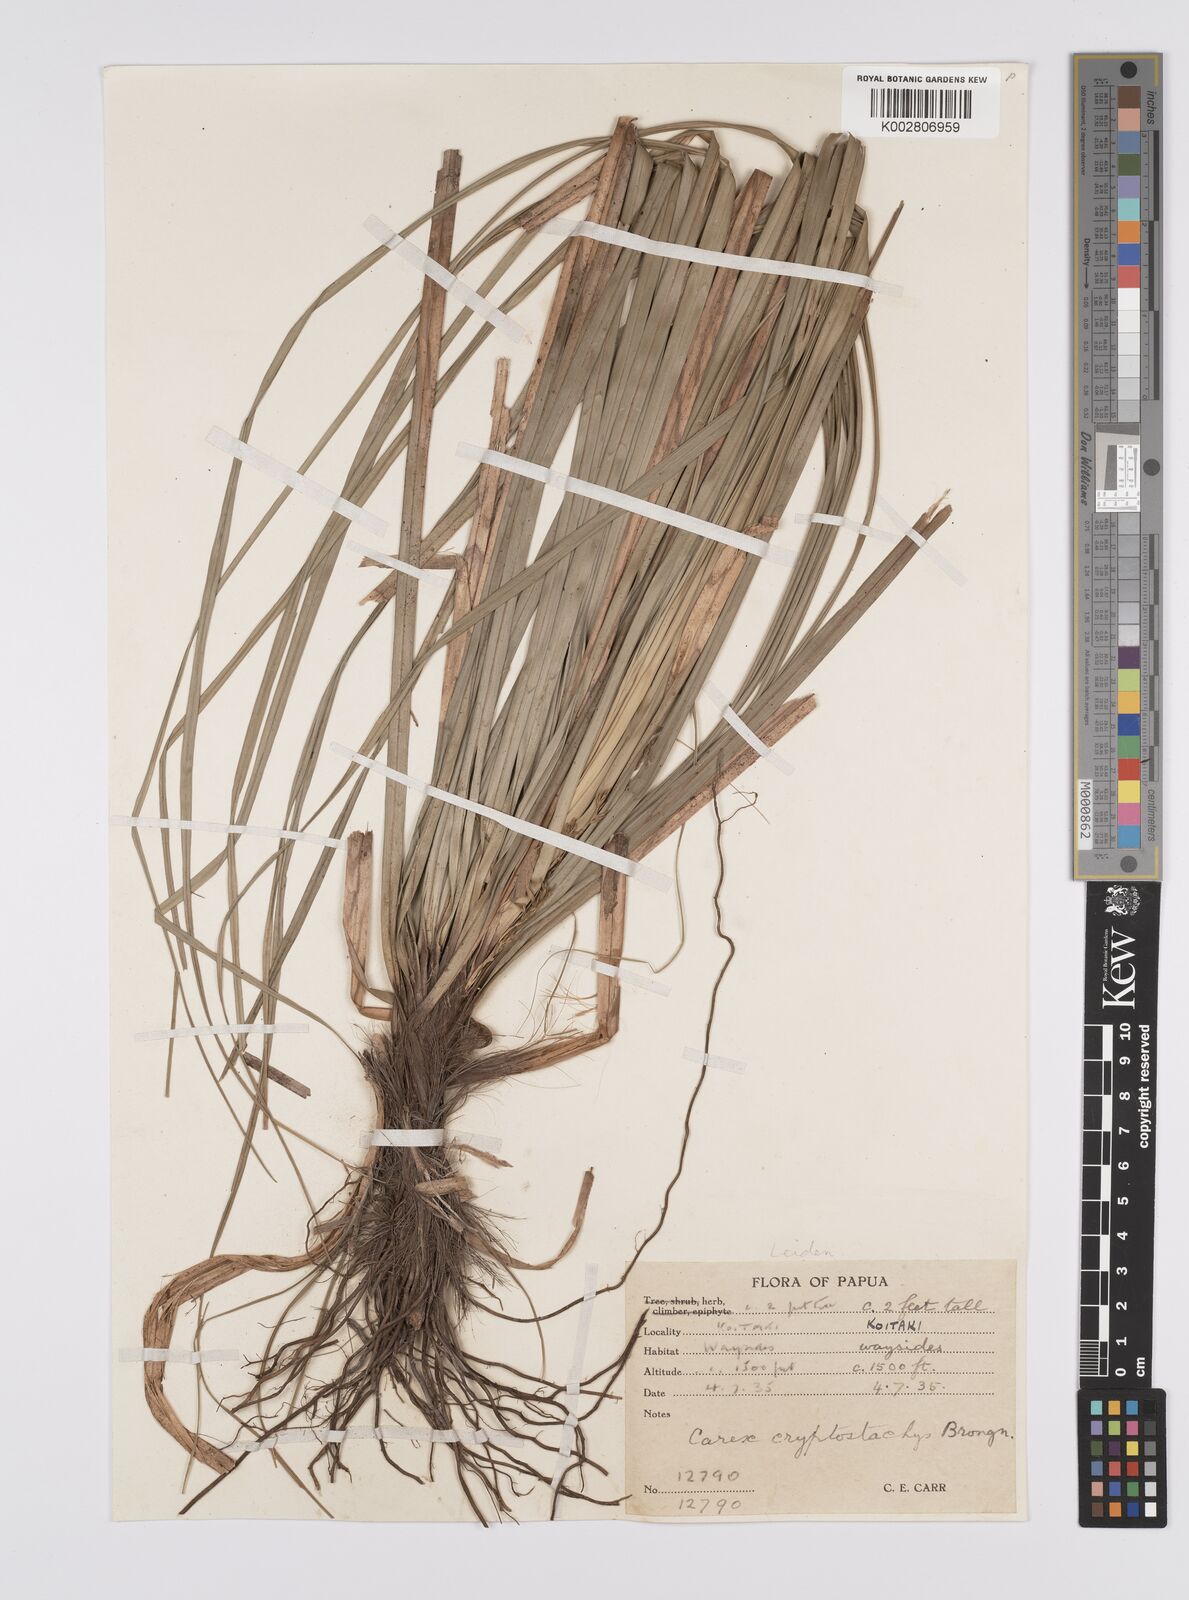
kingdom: Plantae
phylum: Tracheophyta
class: Liliopsida
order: Poales
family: Cyperaceae
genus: Carex
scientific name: Carex cryptostachys
